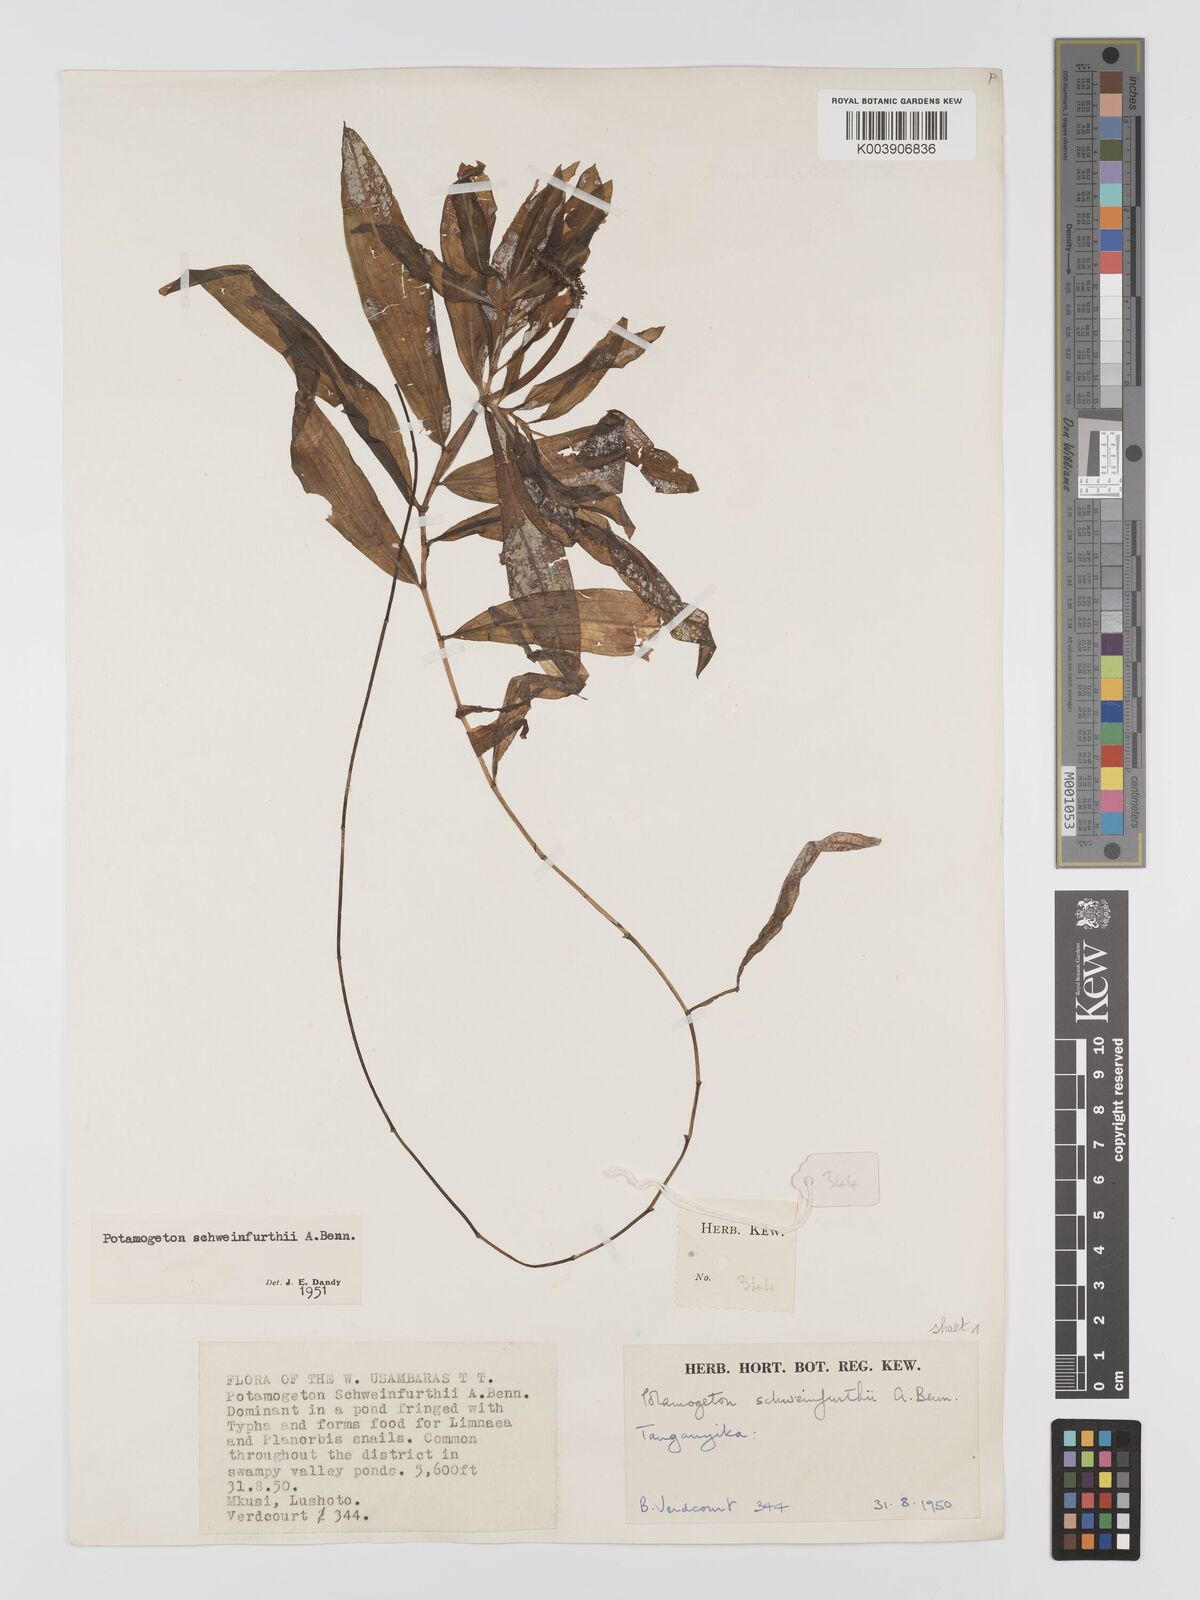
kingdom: Plantae
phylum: Tracheophyta
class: Liliopsida
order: Alismatales
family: Potamogetonaceae
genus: Potamogeton
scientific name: Potamogeton schweinfurthii
